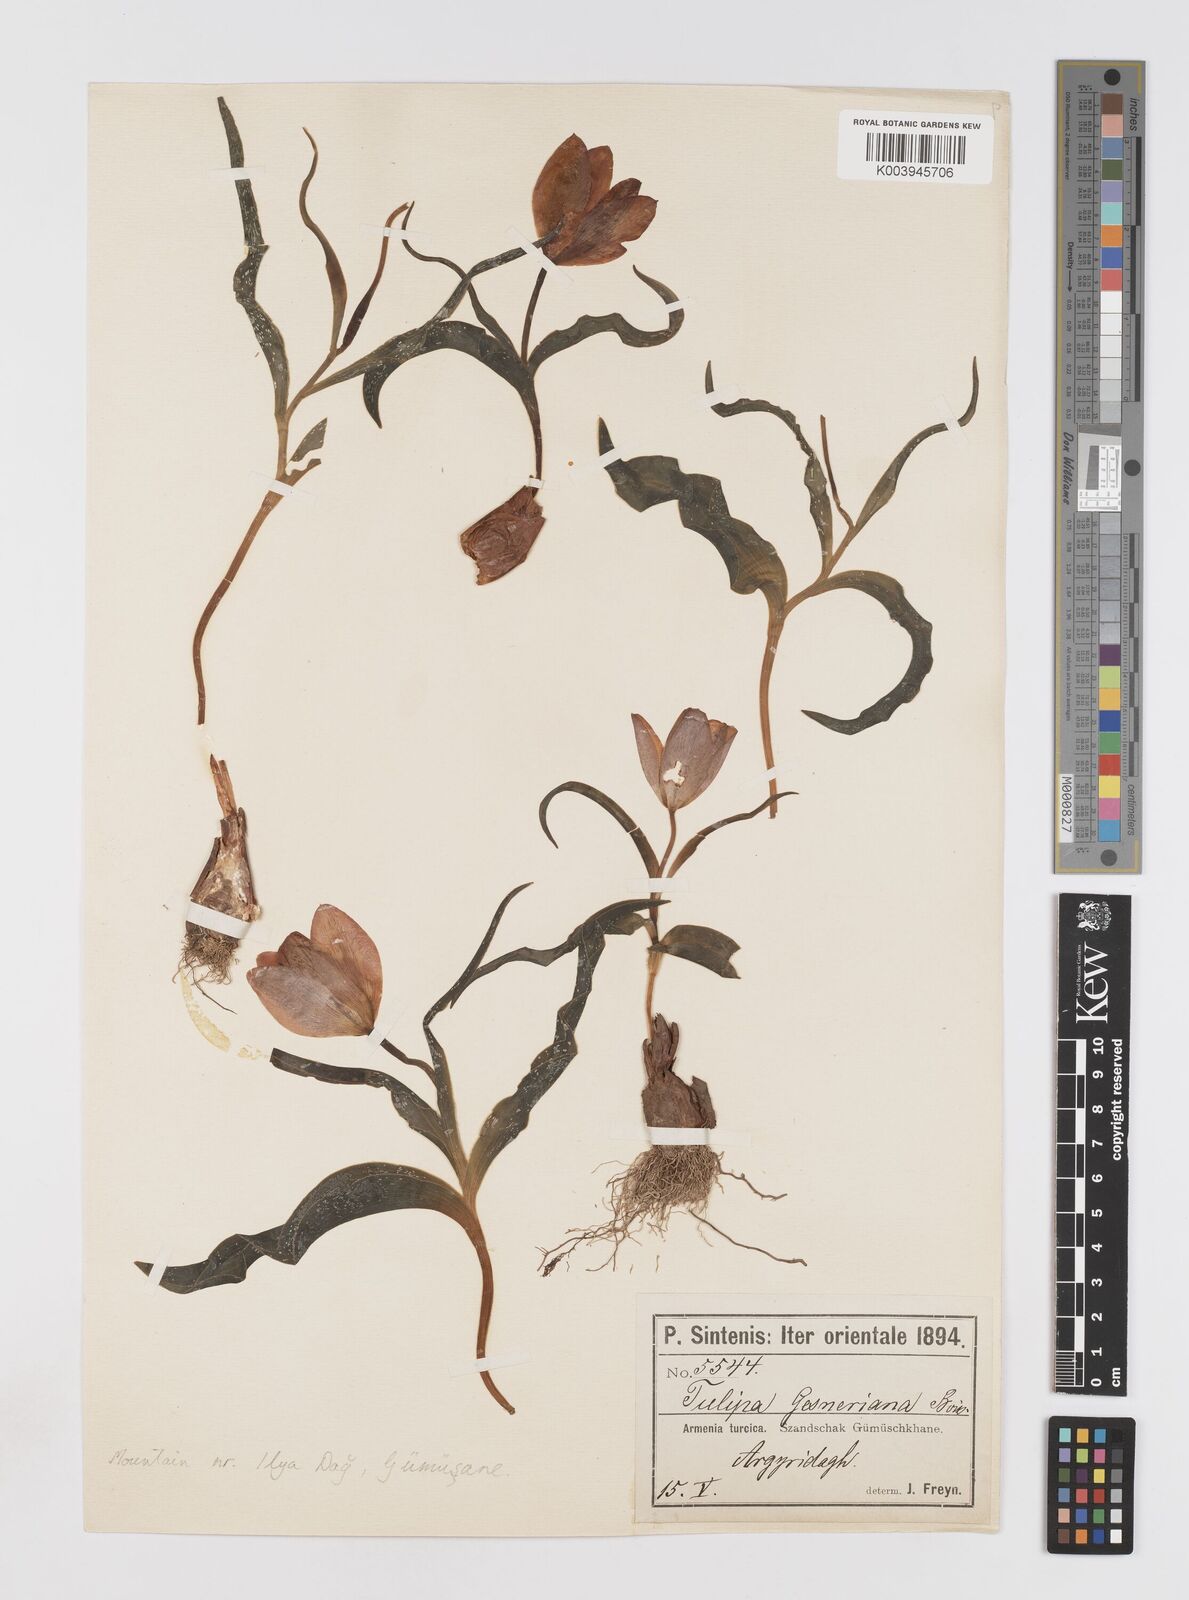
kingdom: Plantae
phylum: Tracheophyta
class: Liliopsida
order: Liliales
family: Liliaceae
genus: Tulipa
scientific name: Tulipa armena
